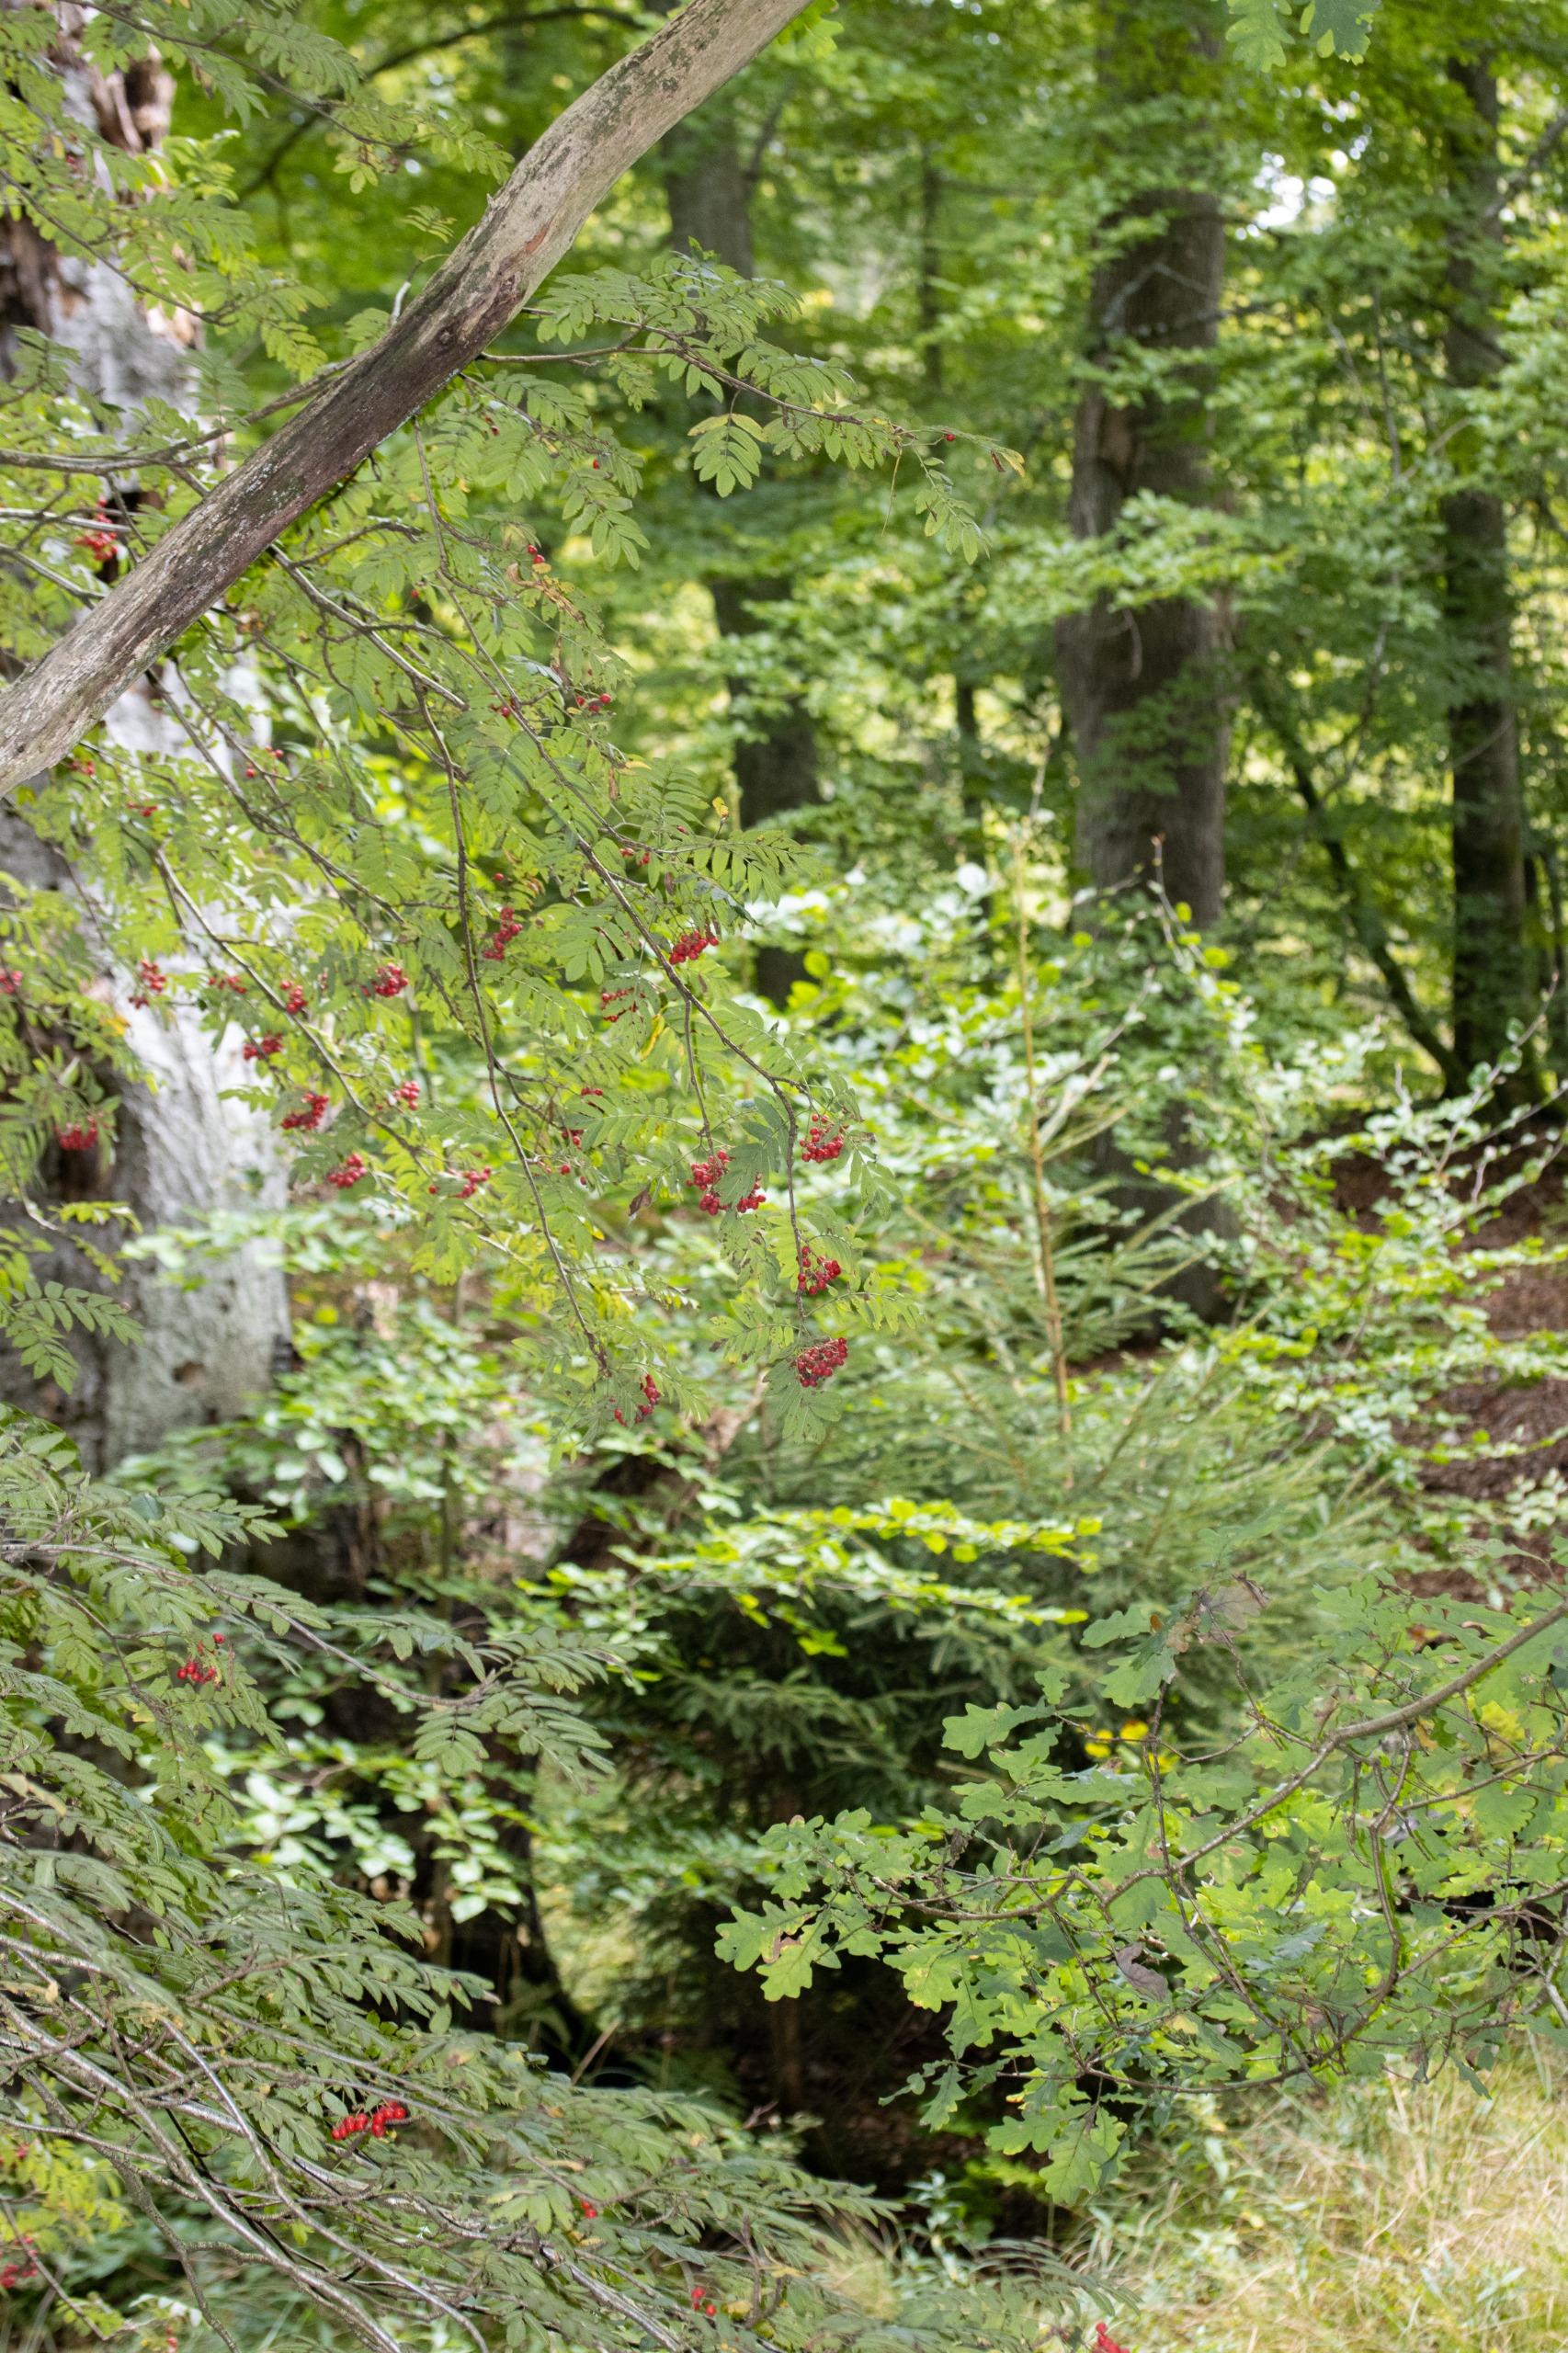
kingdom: Plantae
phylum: Tracheophyta
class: Magnoliopsida
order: Rosales
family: Rosaceae
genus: Sorbus
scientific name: Sorbus aucuparia
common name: Almindelig røn
